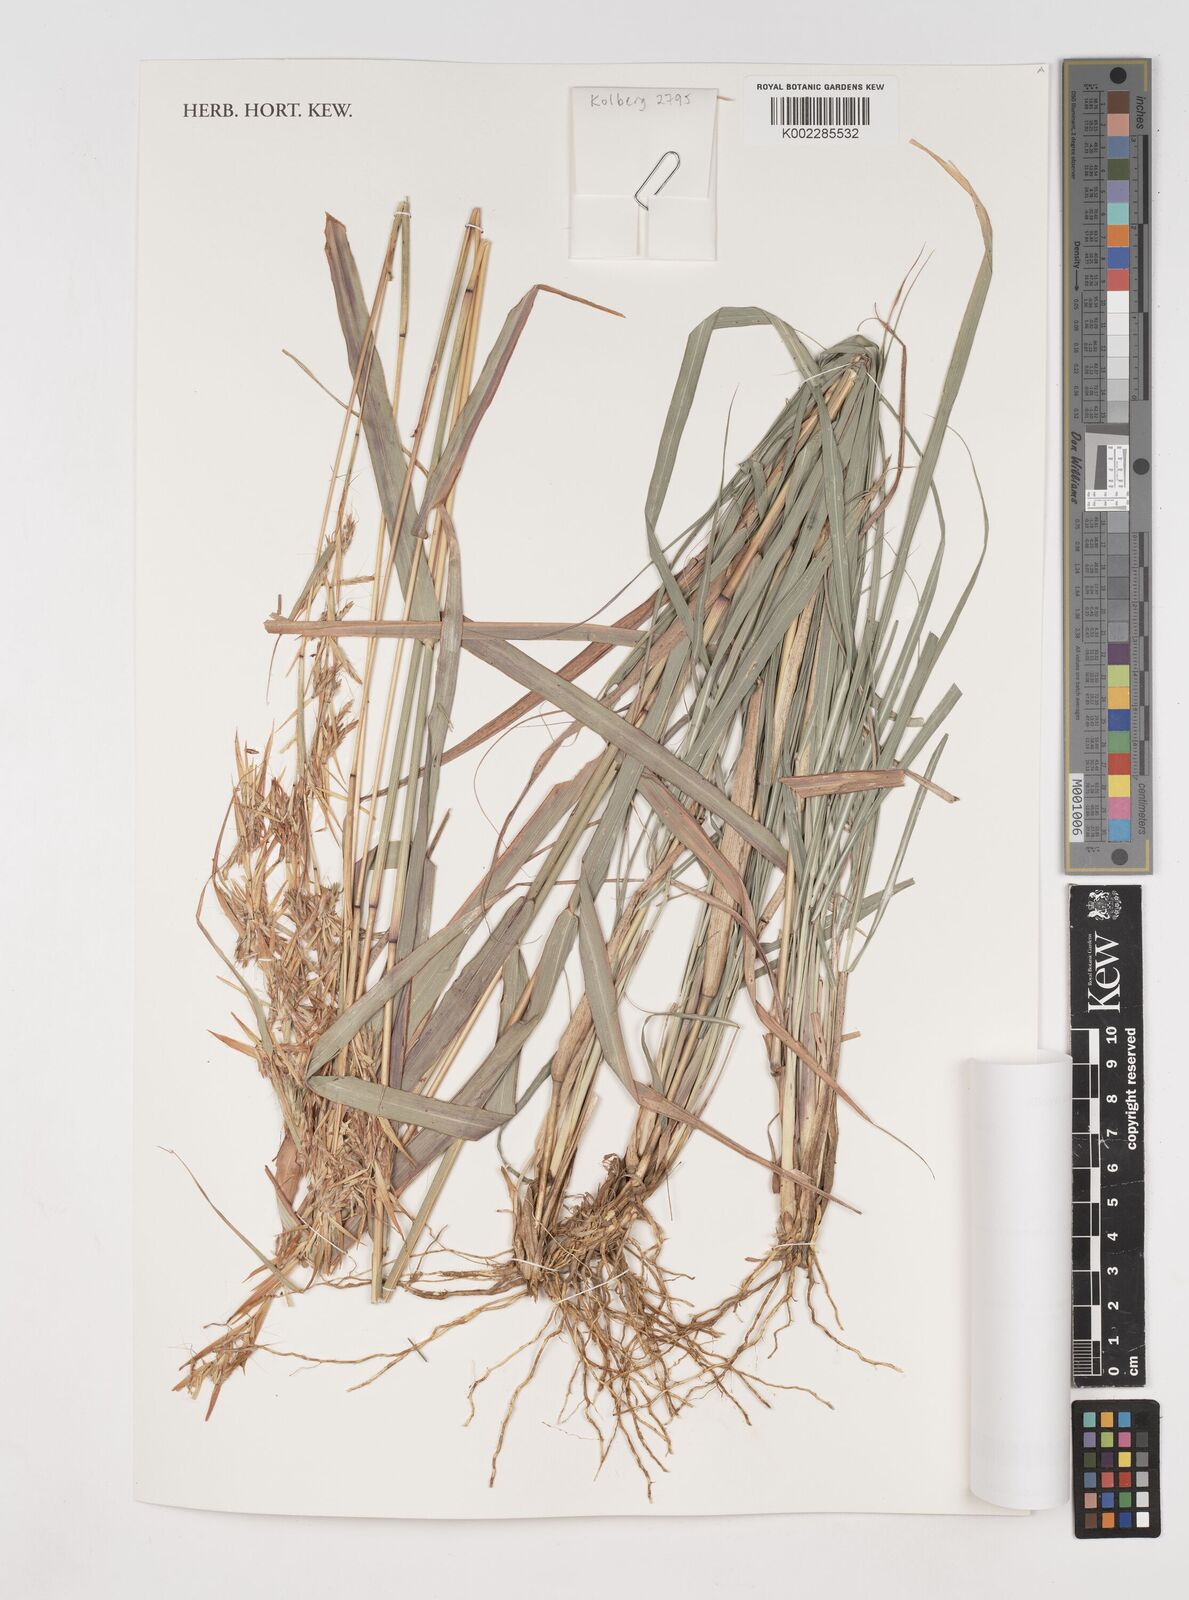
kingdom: Plantae
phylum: Tracheophyta
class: Liliopsida
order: Poales
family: Poaceae
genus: Cymbopogon
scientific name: Cymbopogon caesius
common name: Kachi grass
